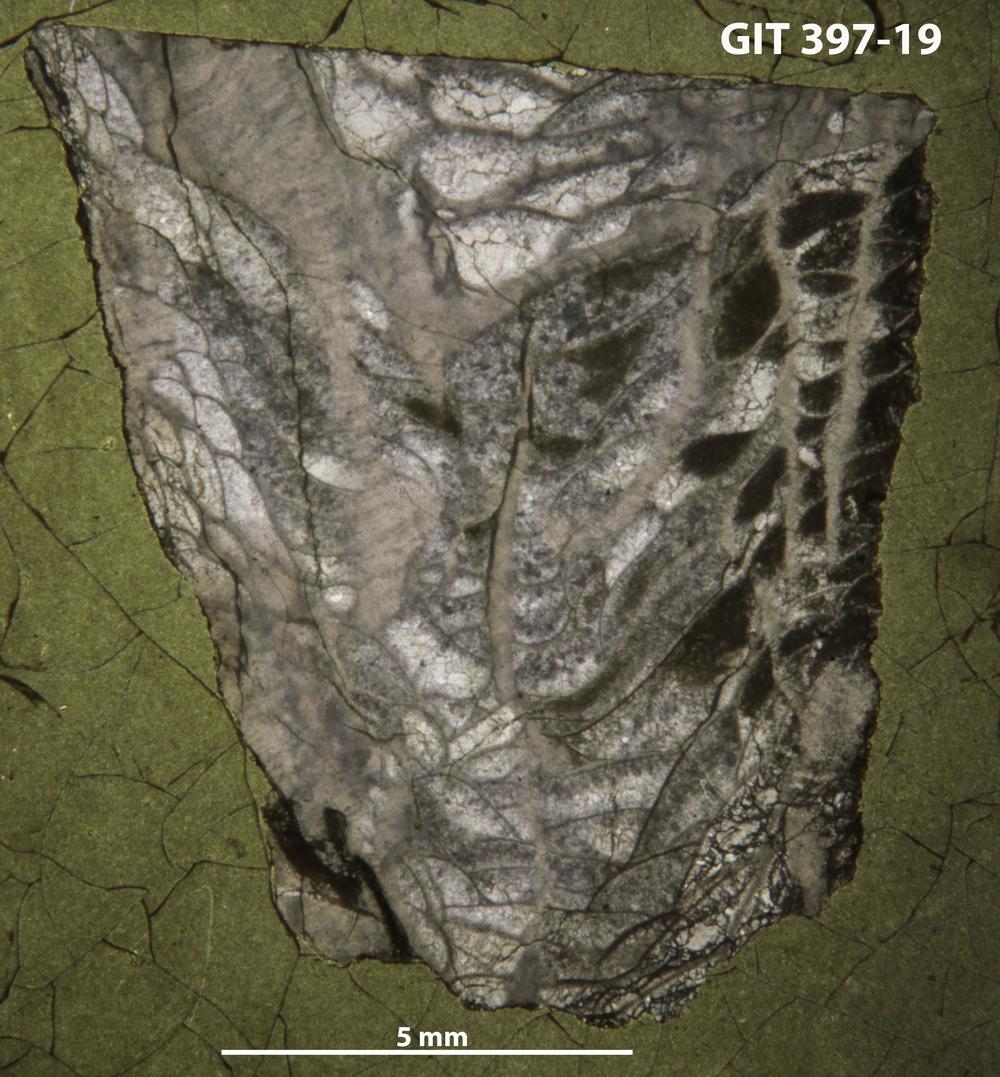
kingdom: Animalia
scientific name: Animalia
